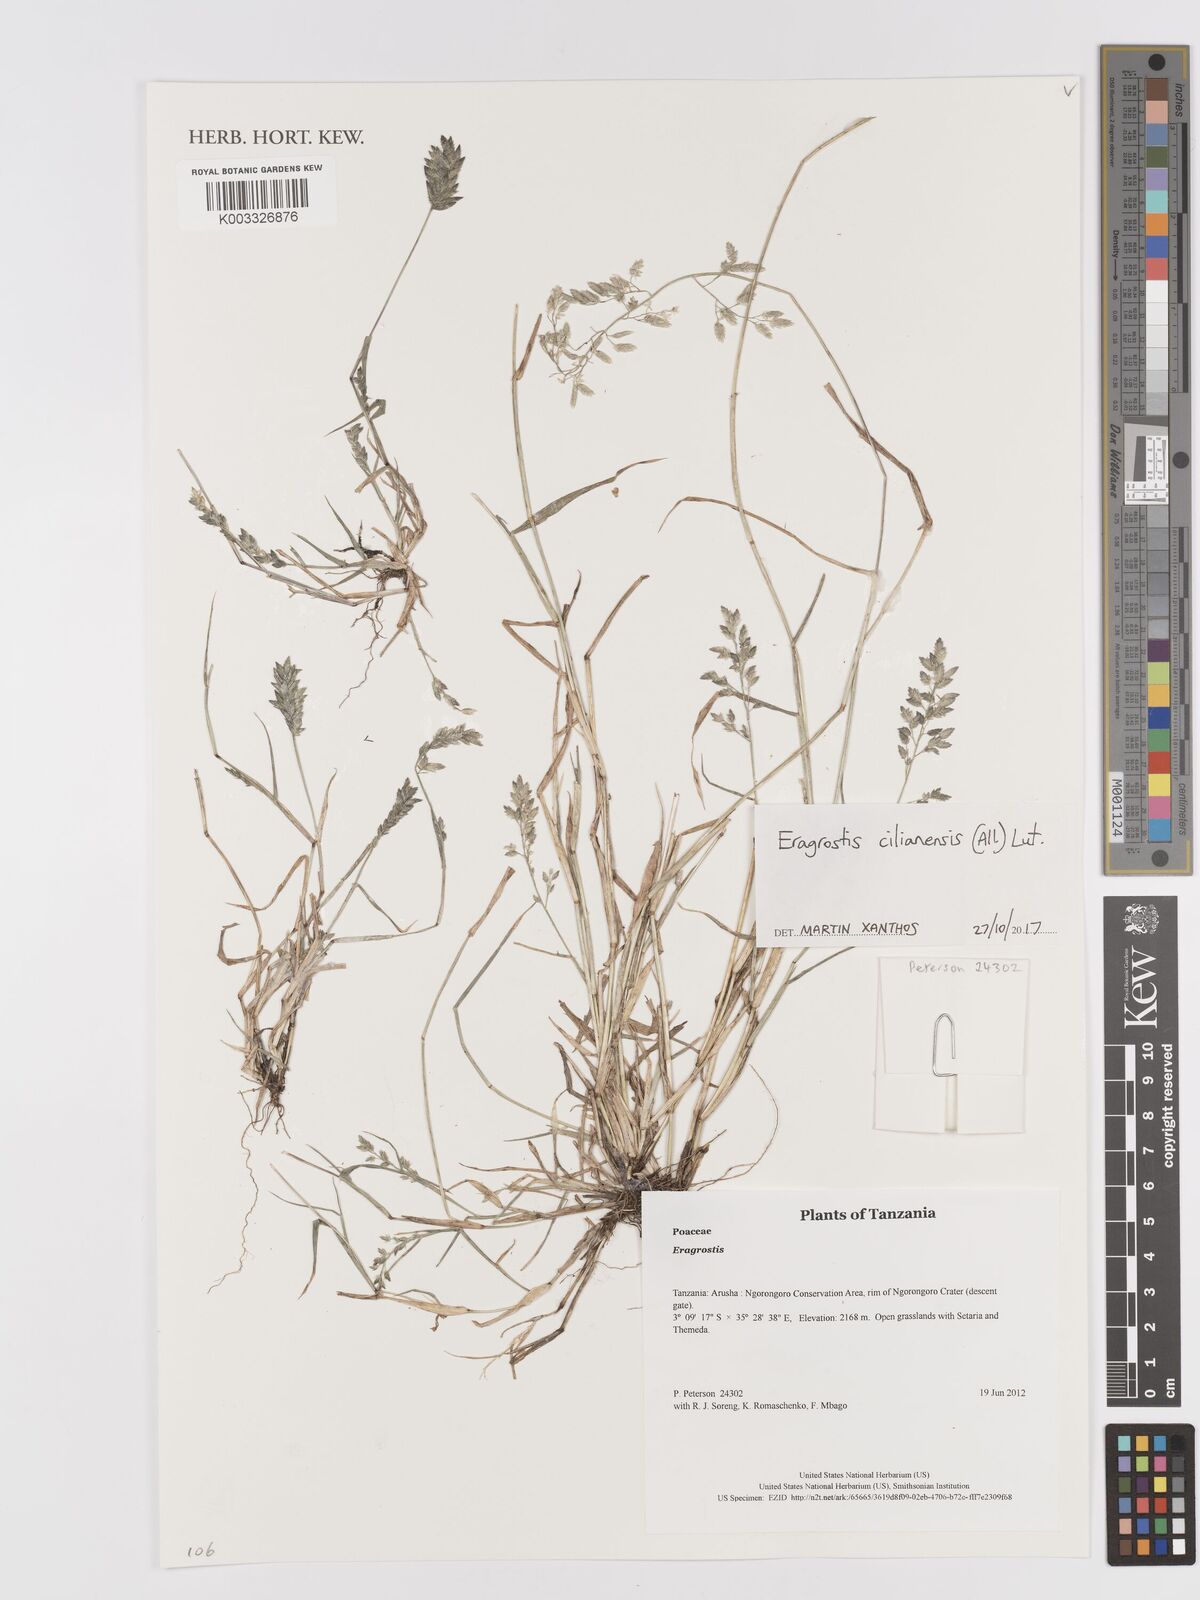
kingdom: Plantae
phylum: Tracheophyta
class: Liliopsida
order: Poales
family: Poaceae
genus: Eragrostis
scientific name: Eragrostis cilianensis
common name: Stinkgrass
